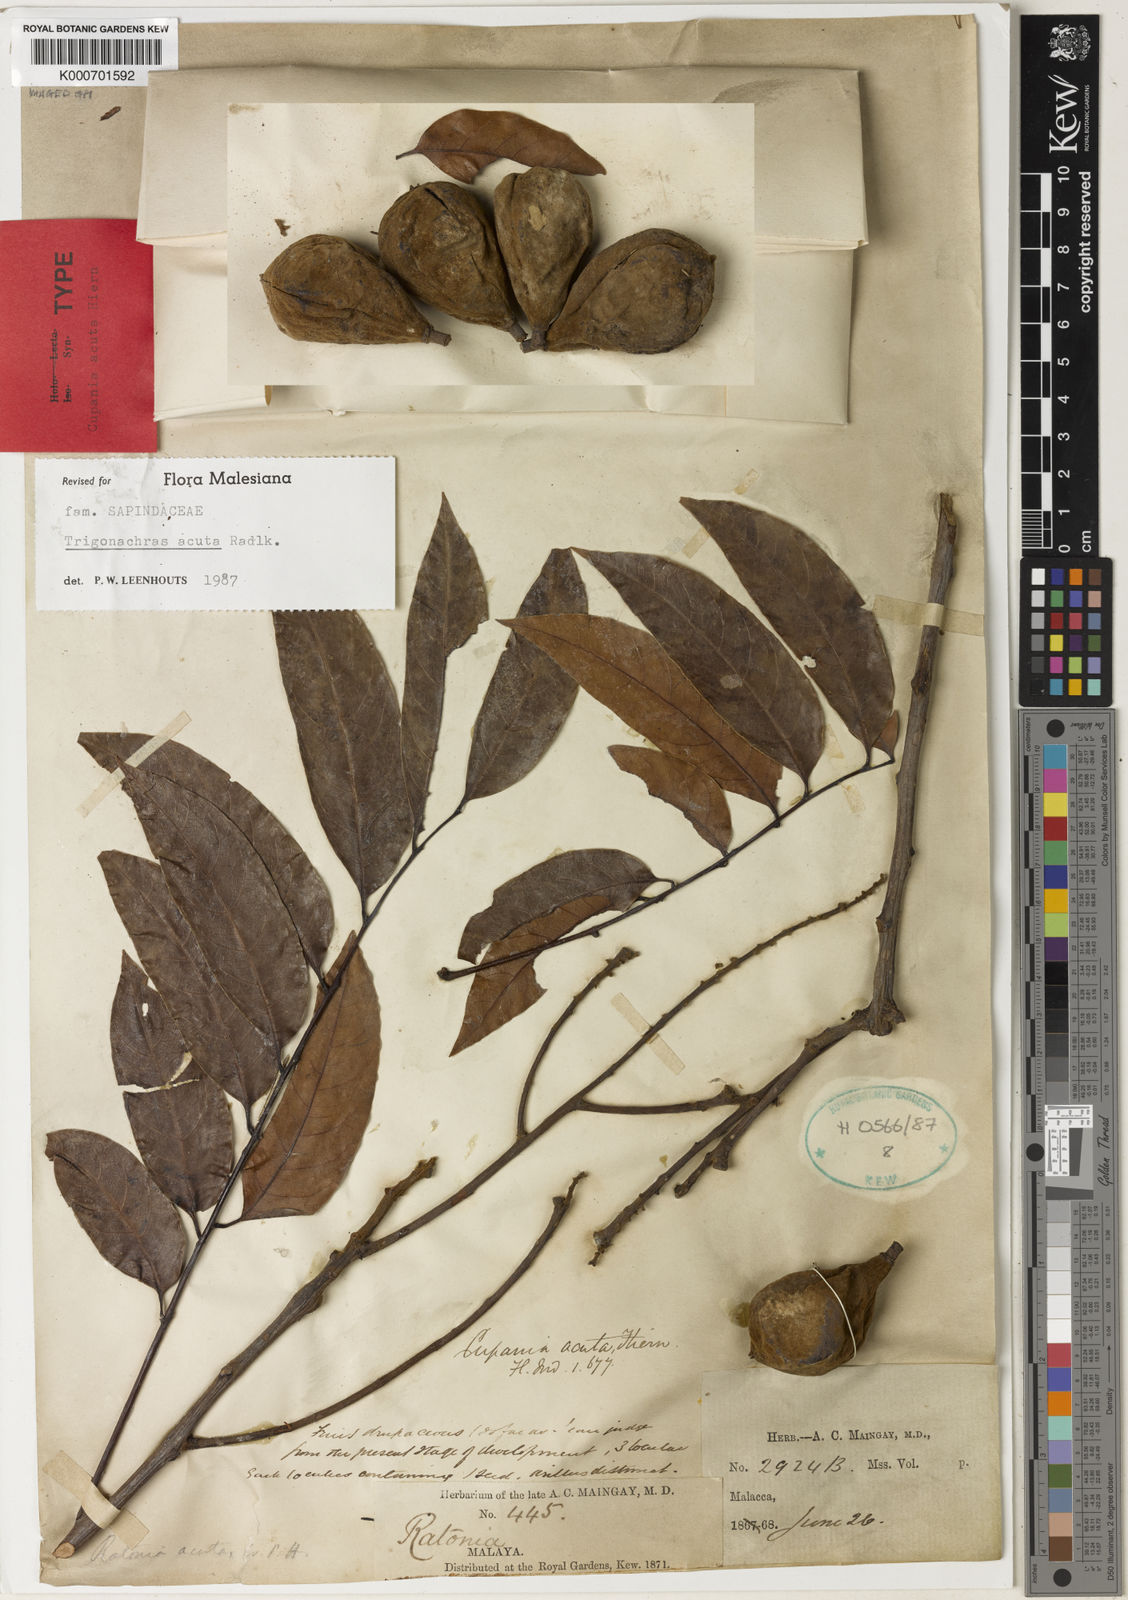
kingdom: Plantae
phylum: Tracheophyta
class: Magnoliopsida
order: Sapindales
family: Sapindaceae
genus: Trigonachras
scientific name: Trigonachras acuta
